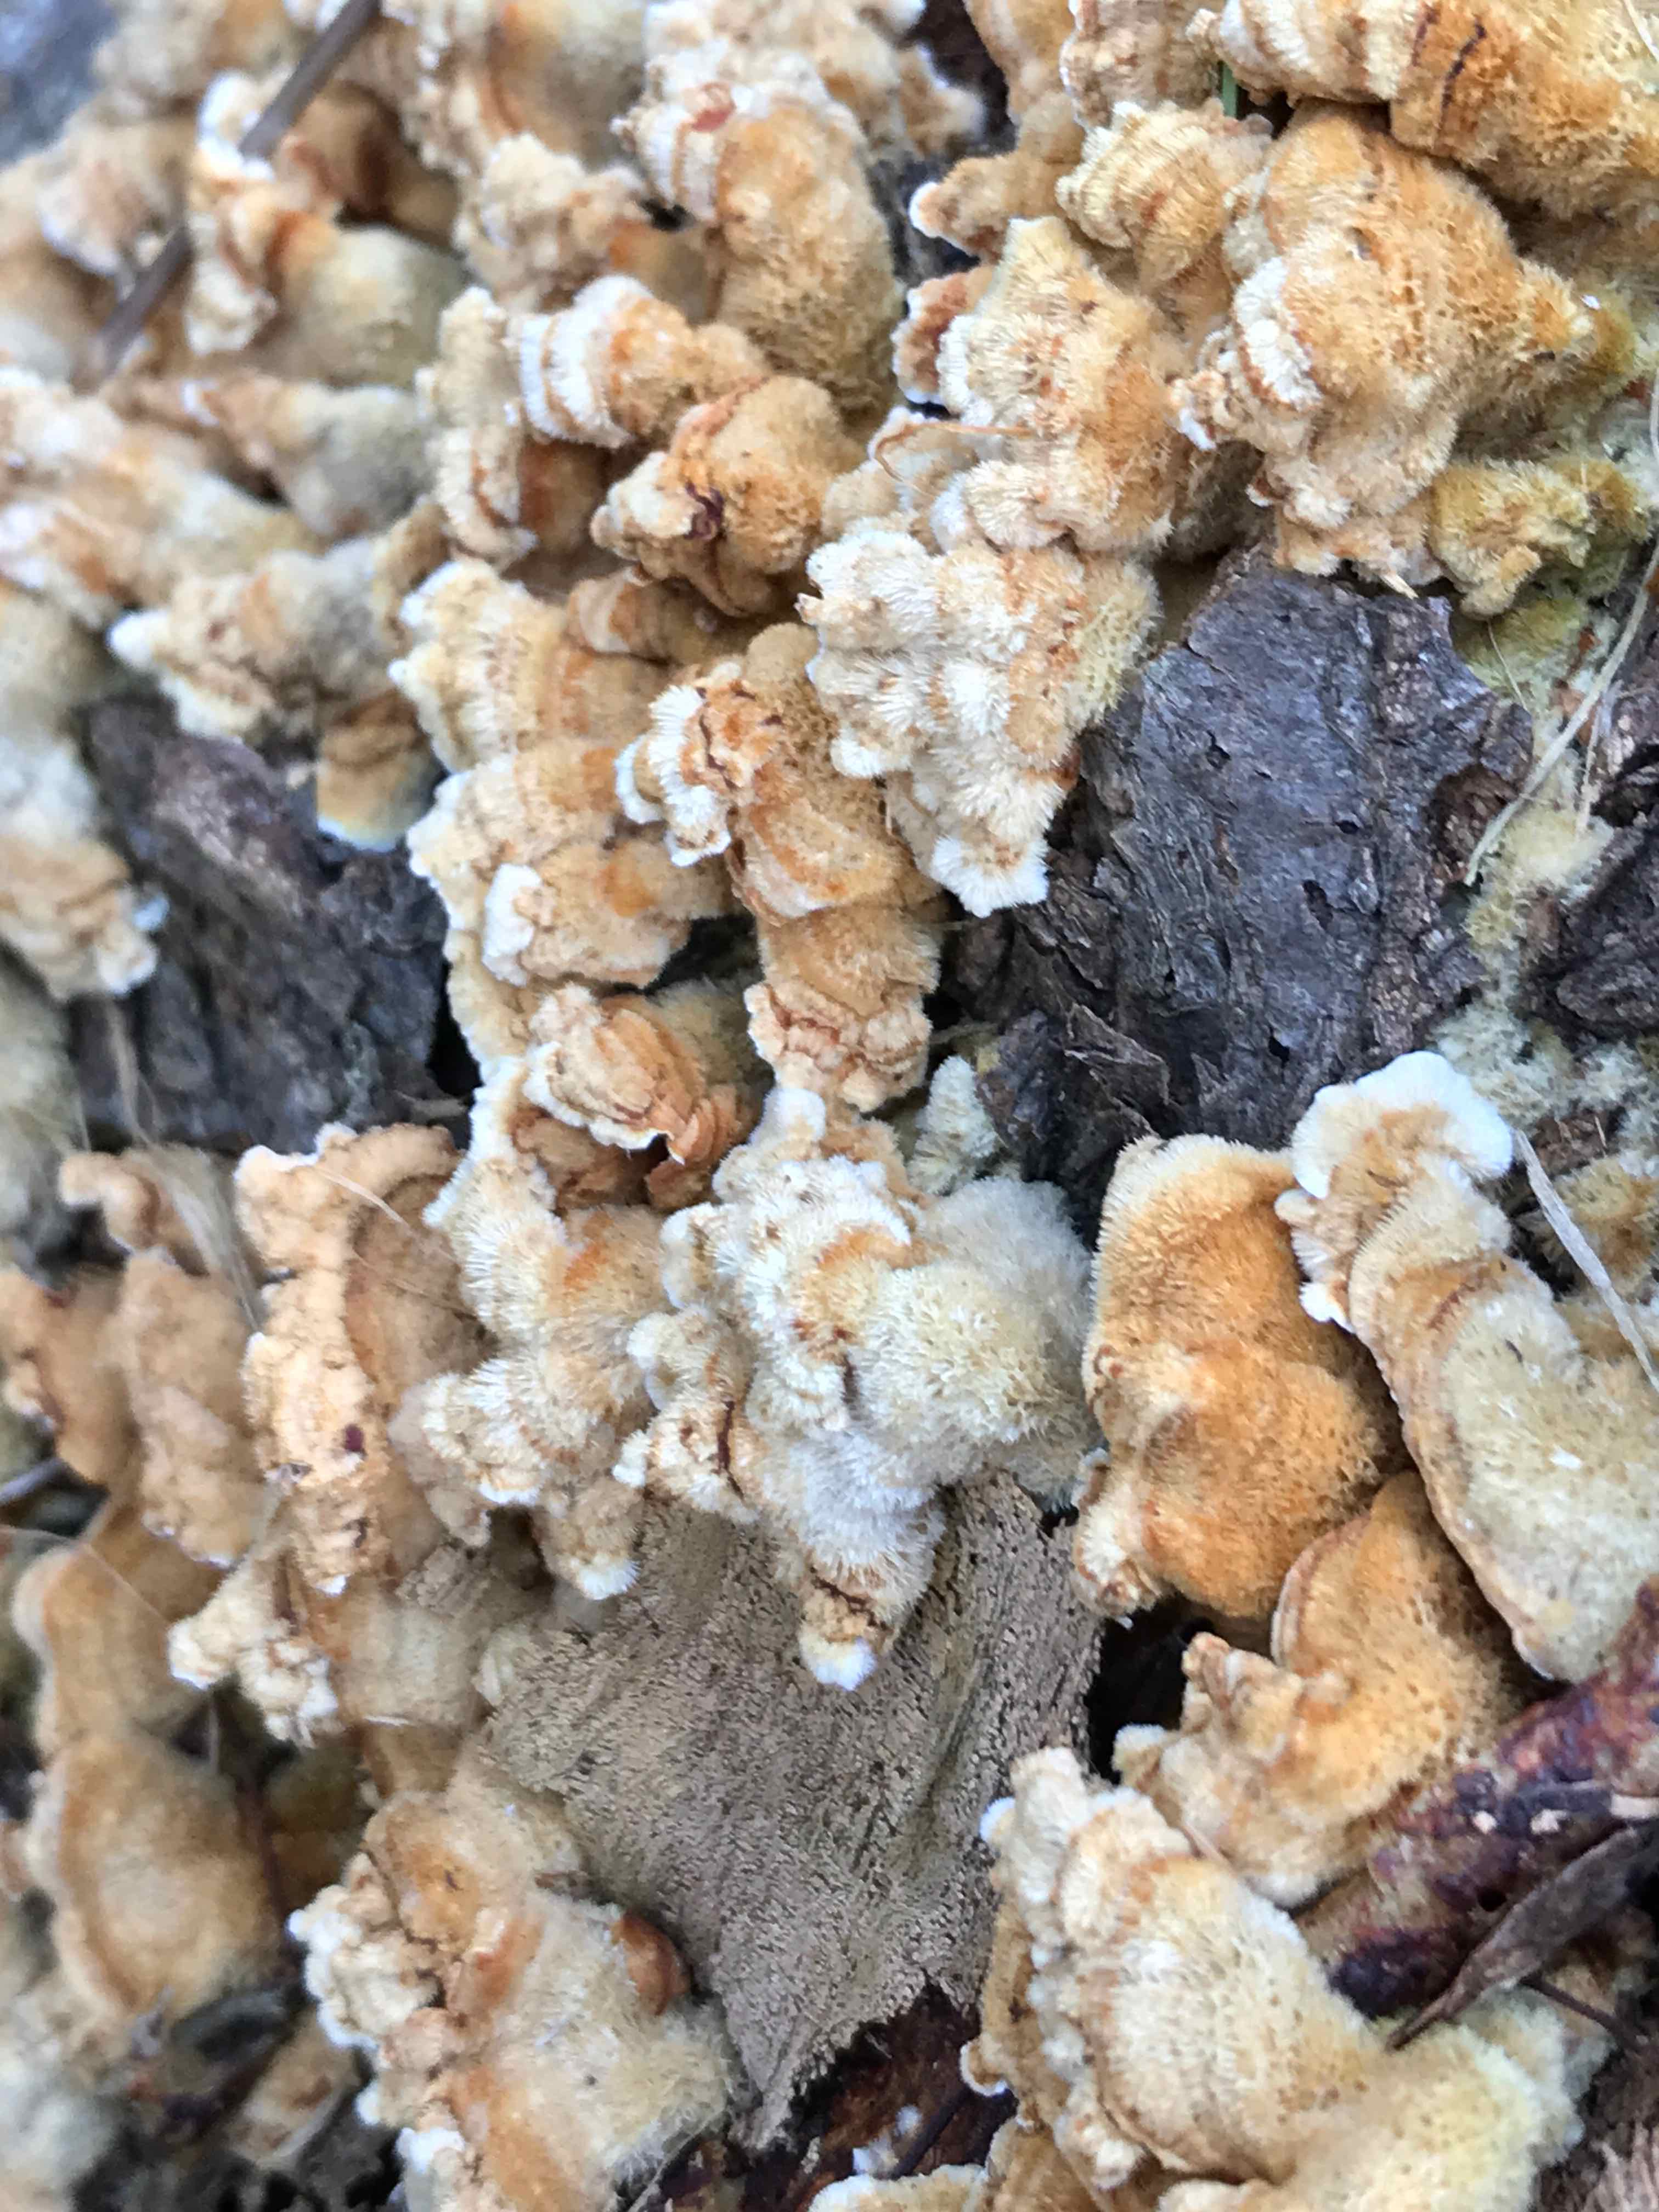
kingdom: Fungi
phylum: Basidiomycota
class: Agaricomycetes
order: Russulales
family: Stereaceae
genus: Stereum
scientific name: Stereum hirsutum
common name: håret lædersvamp
